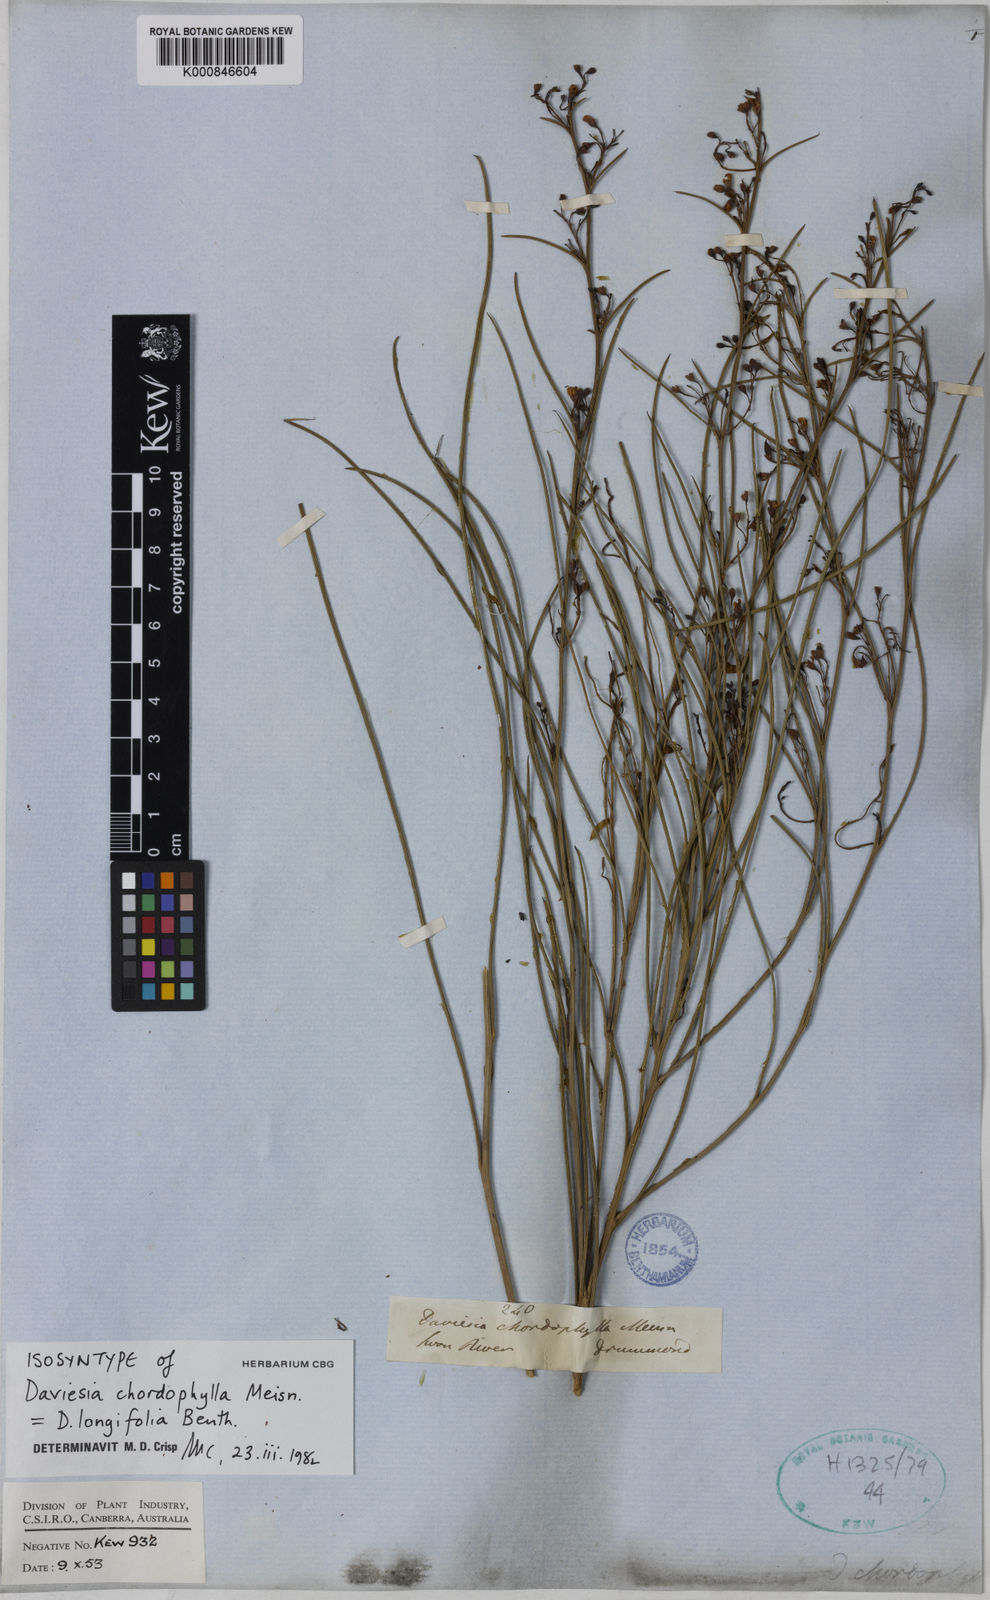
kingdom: Plantae
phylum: Tracheophyta
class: Magnoliopsida
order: Fabales
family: Fabaceae
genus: Daviesia
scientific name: Daviesia longifolia
